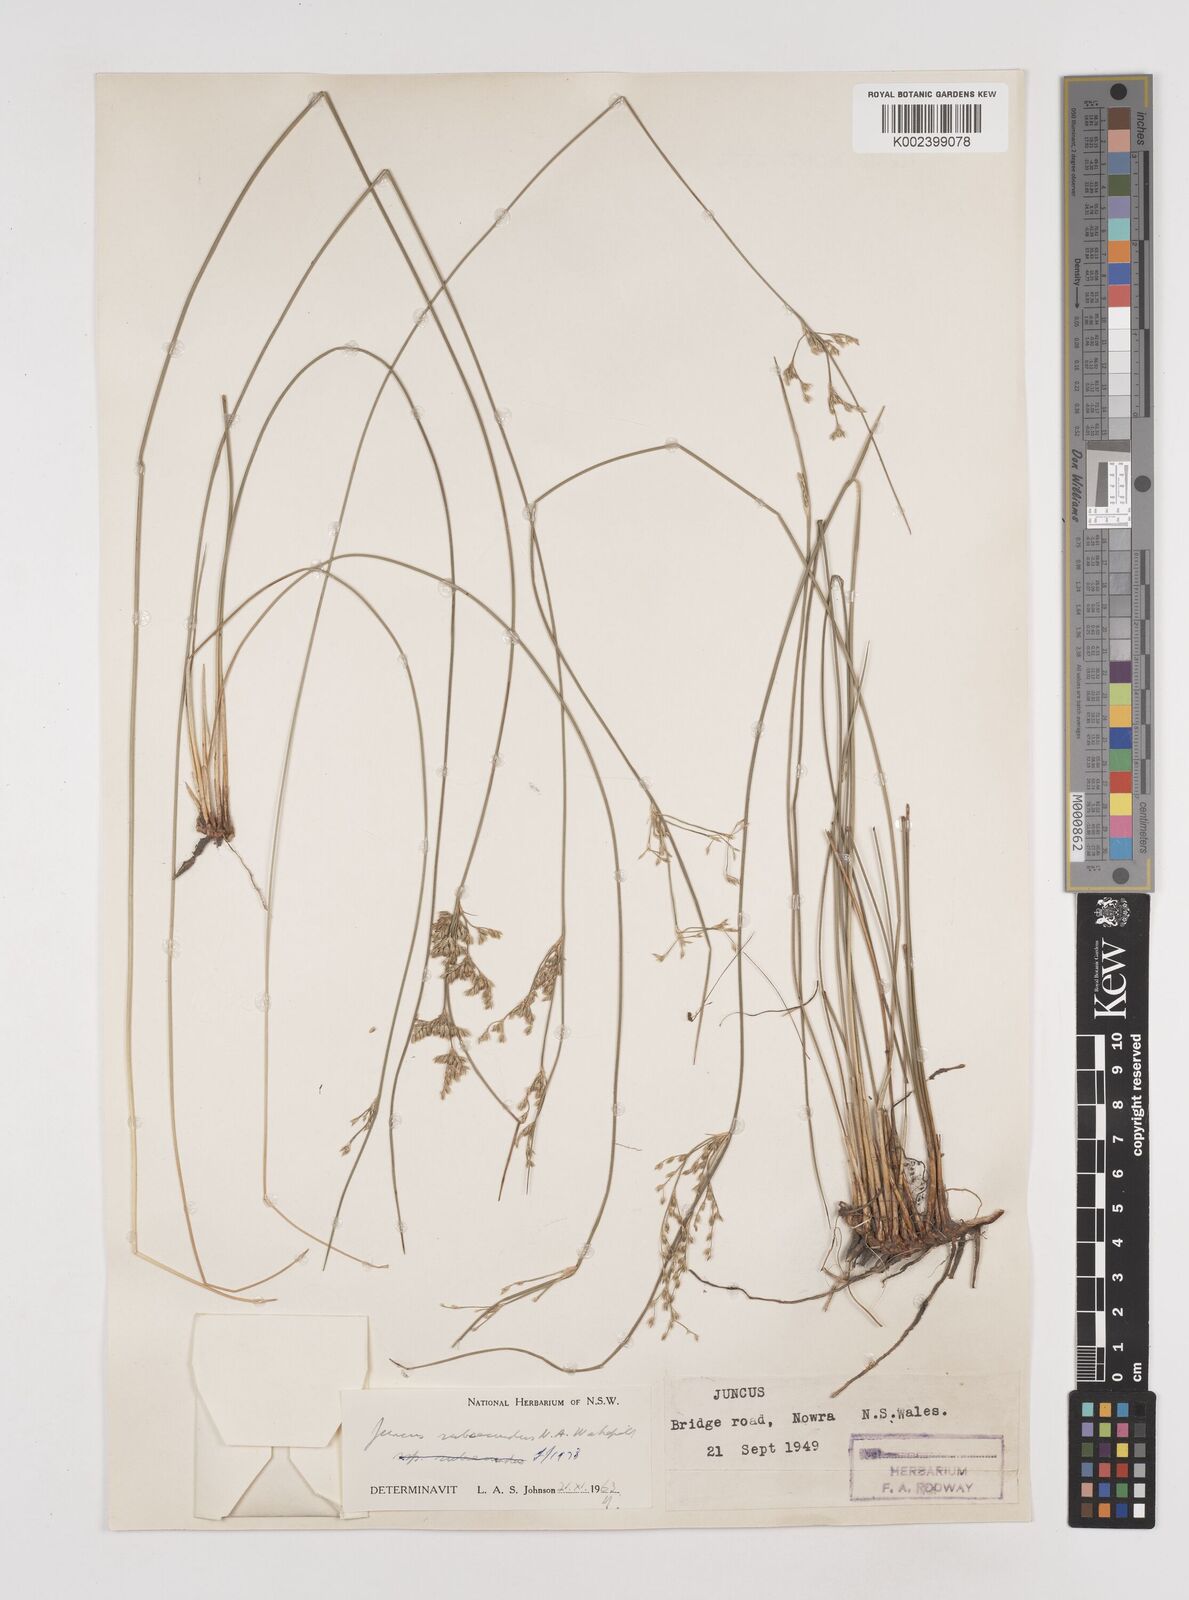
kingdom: Plantae
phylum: Tracheophyta
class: Liliopsida
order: Poales
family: Juncaceae
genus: Juncus
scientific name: Juncus subsecundus
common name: Fingered rush
